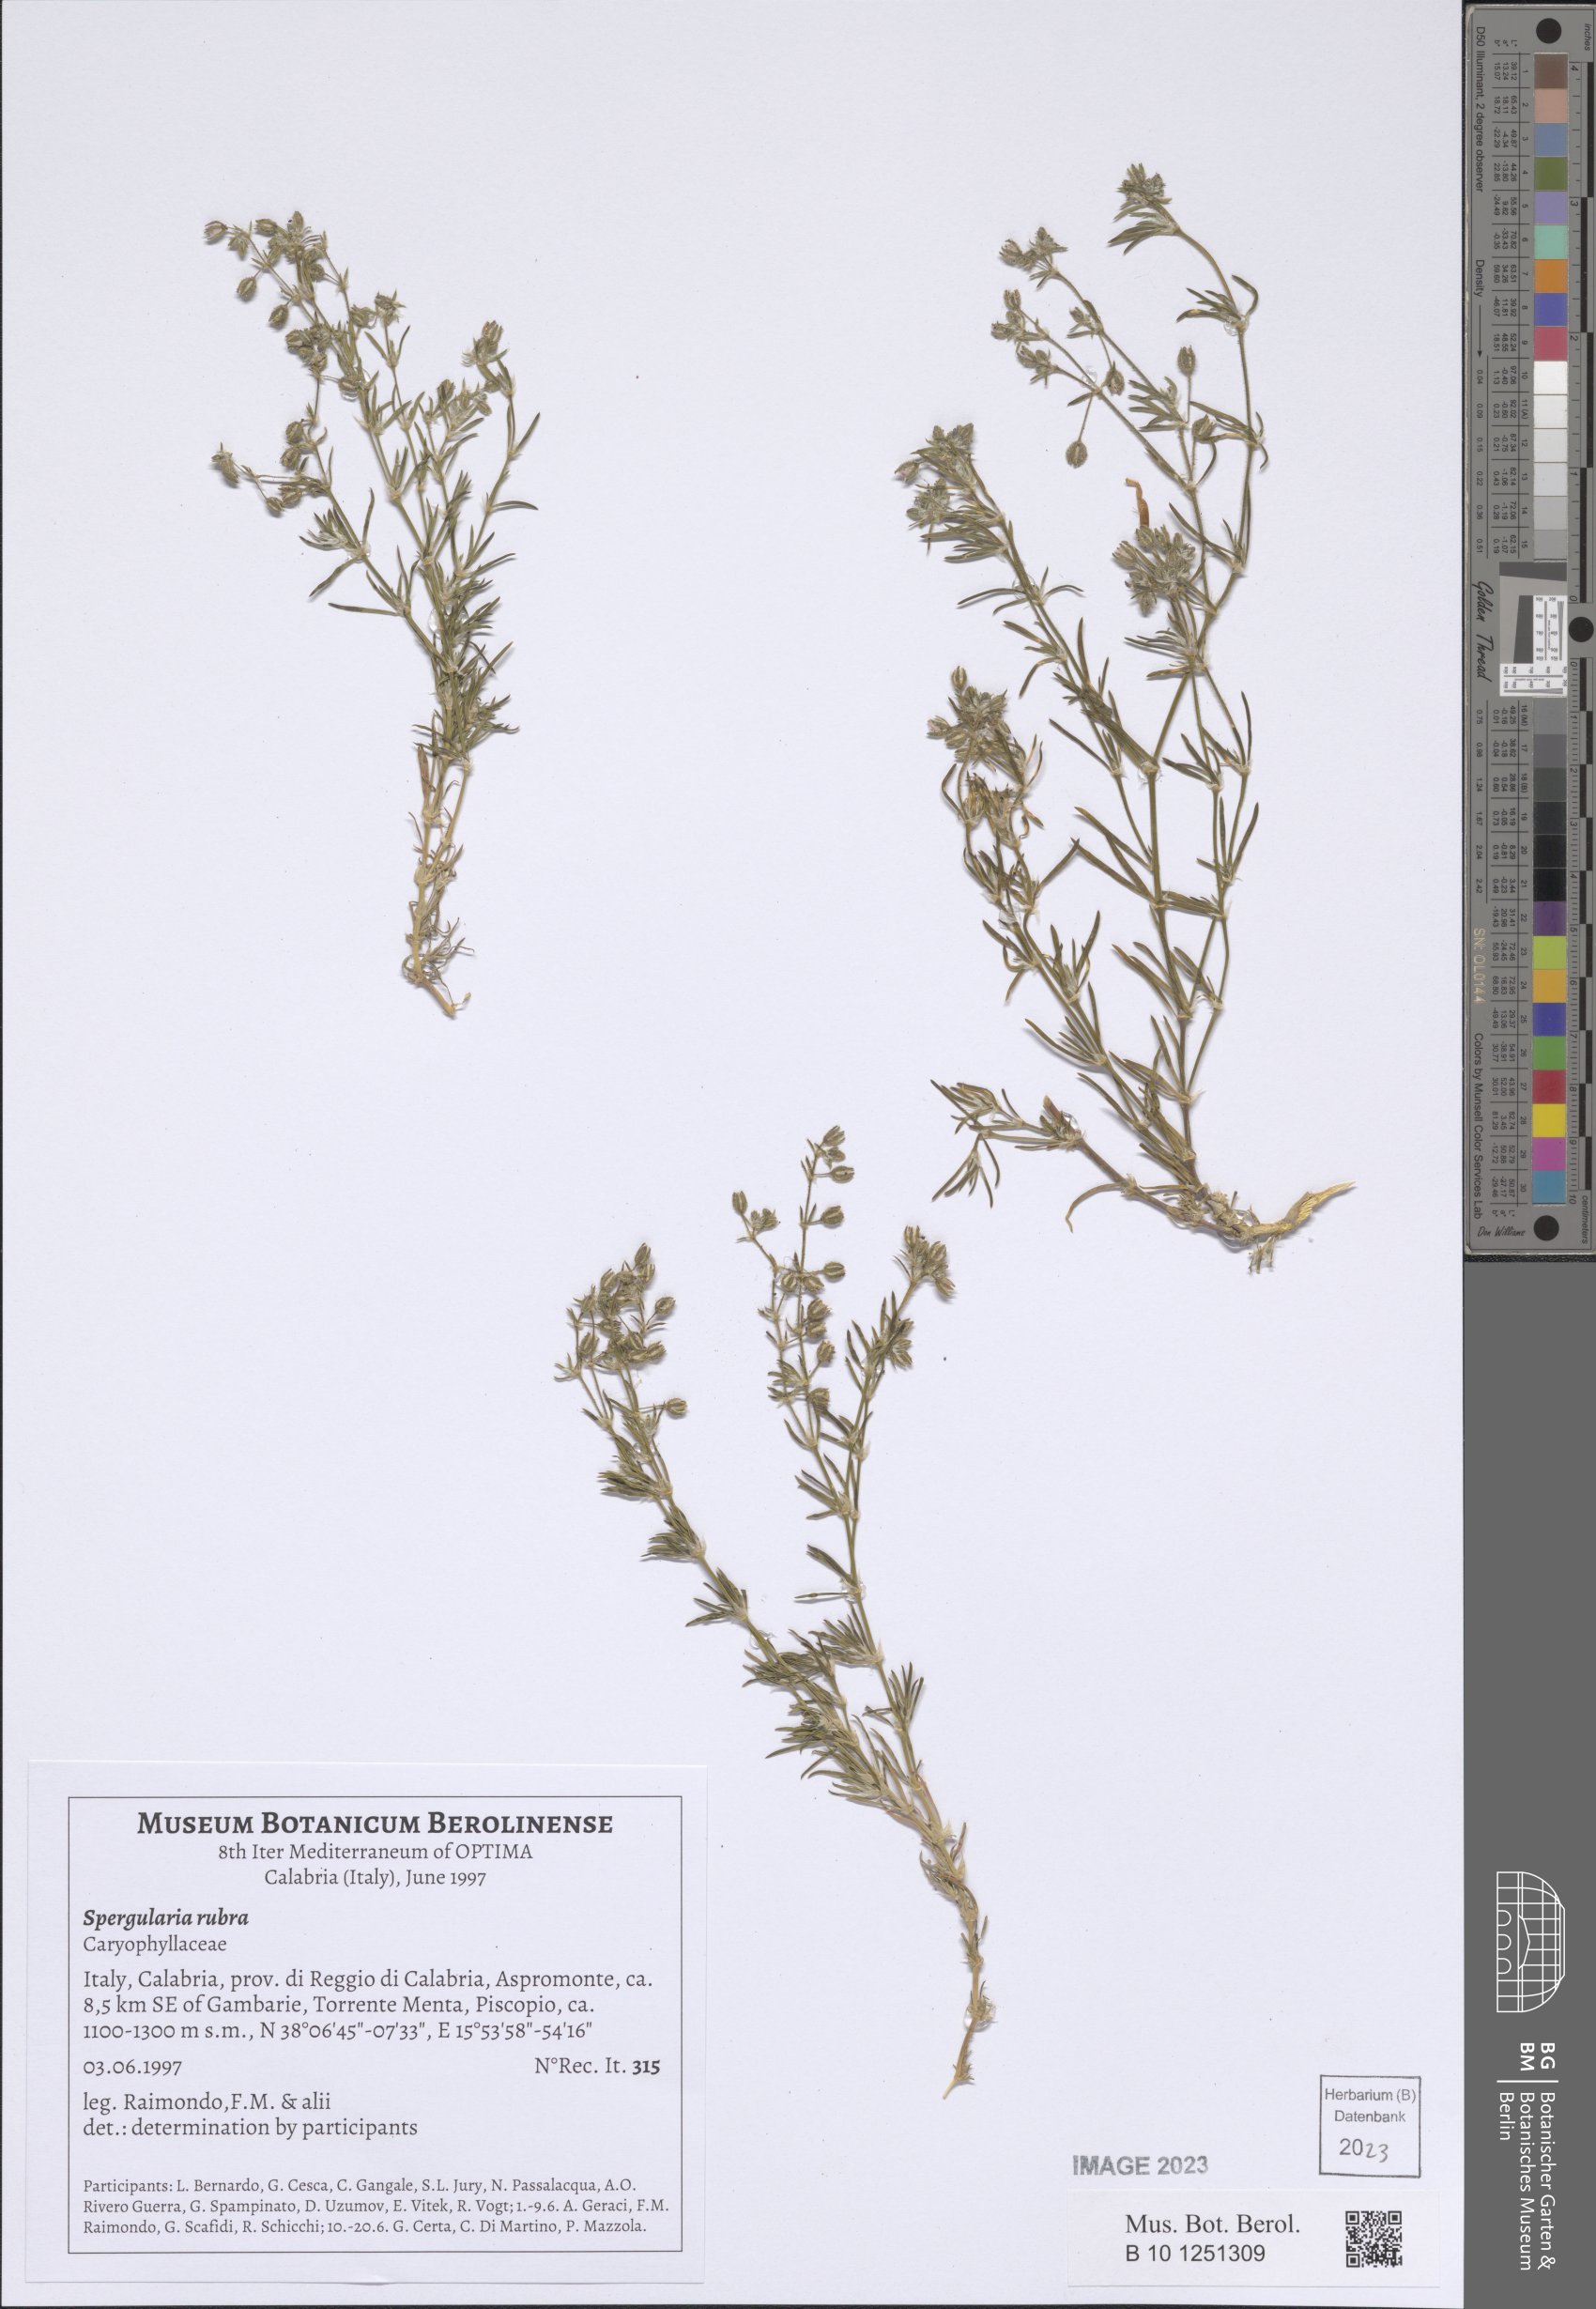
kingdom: Plantae
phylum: Tracheophyta
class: Magnoliopsida
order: Caryophyllales
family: Caryophyllaceae
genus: Spergularia
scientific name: Spergularia rubra
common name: Red sand-spurrey
